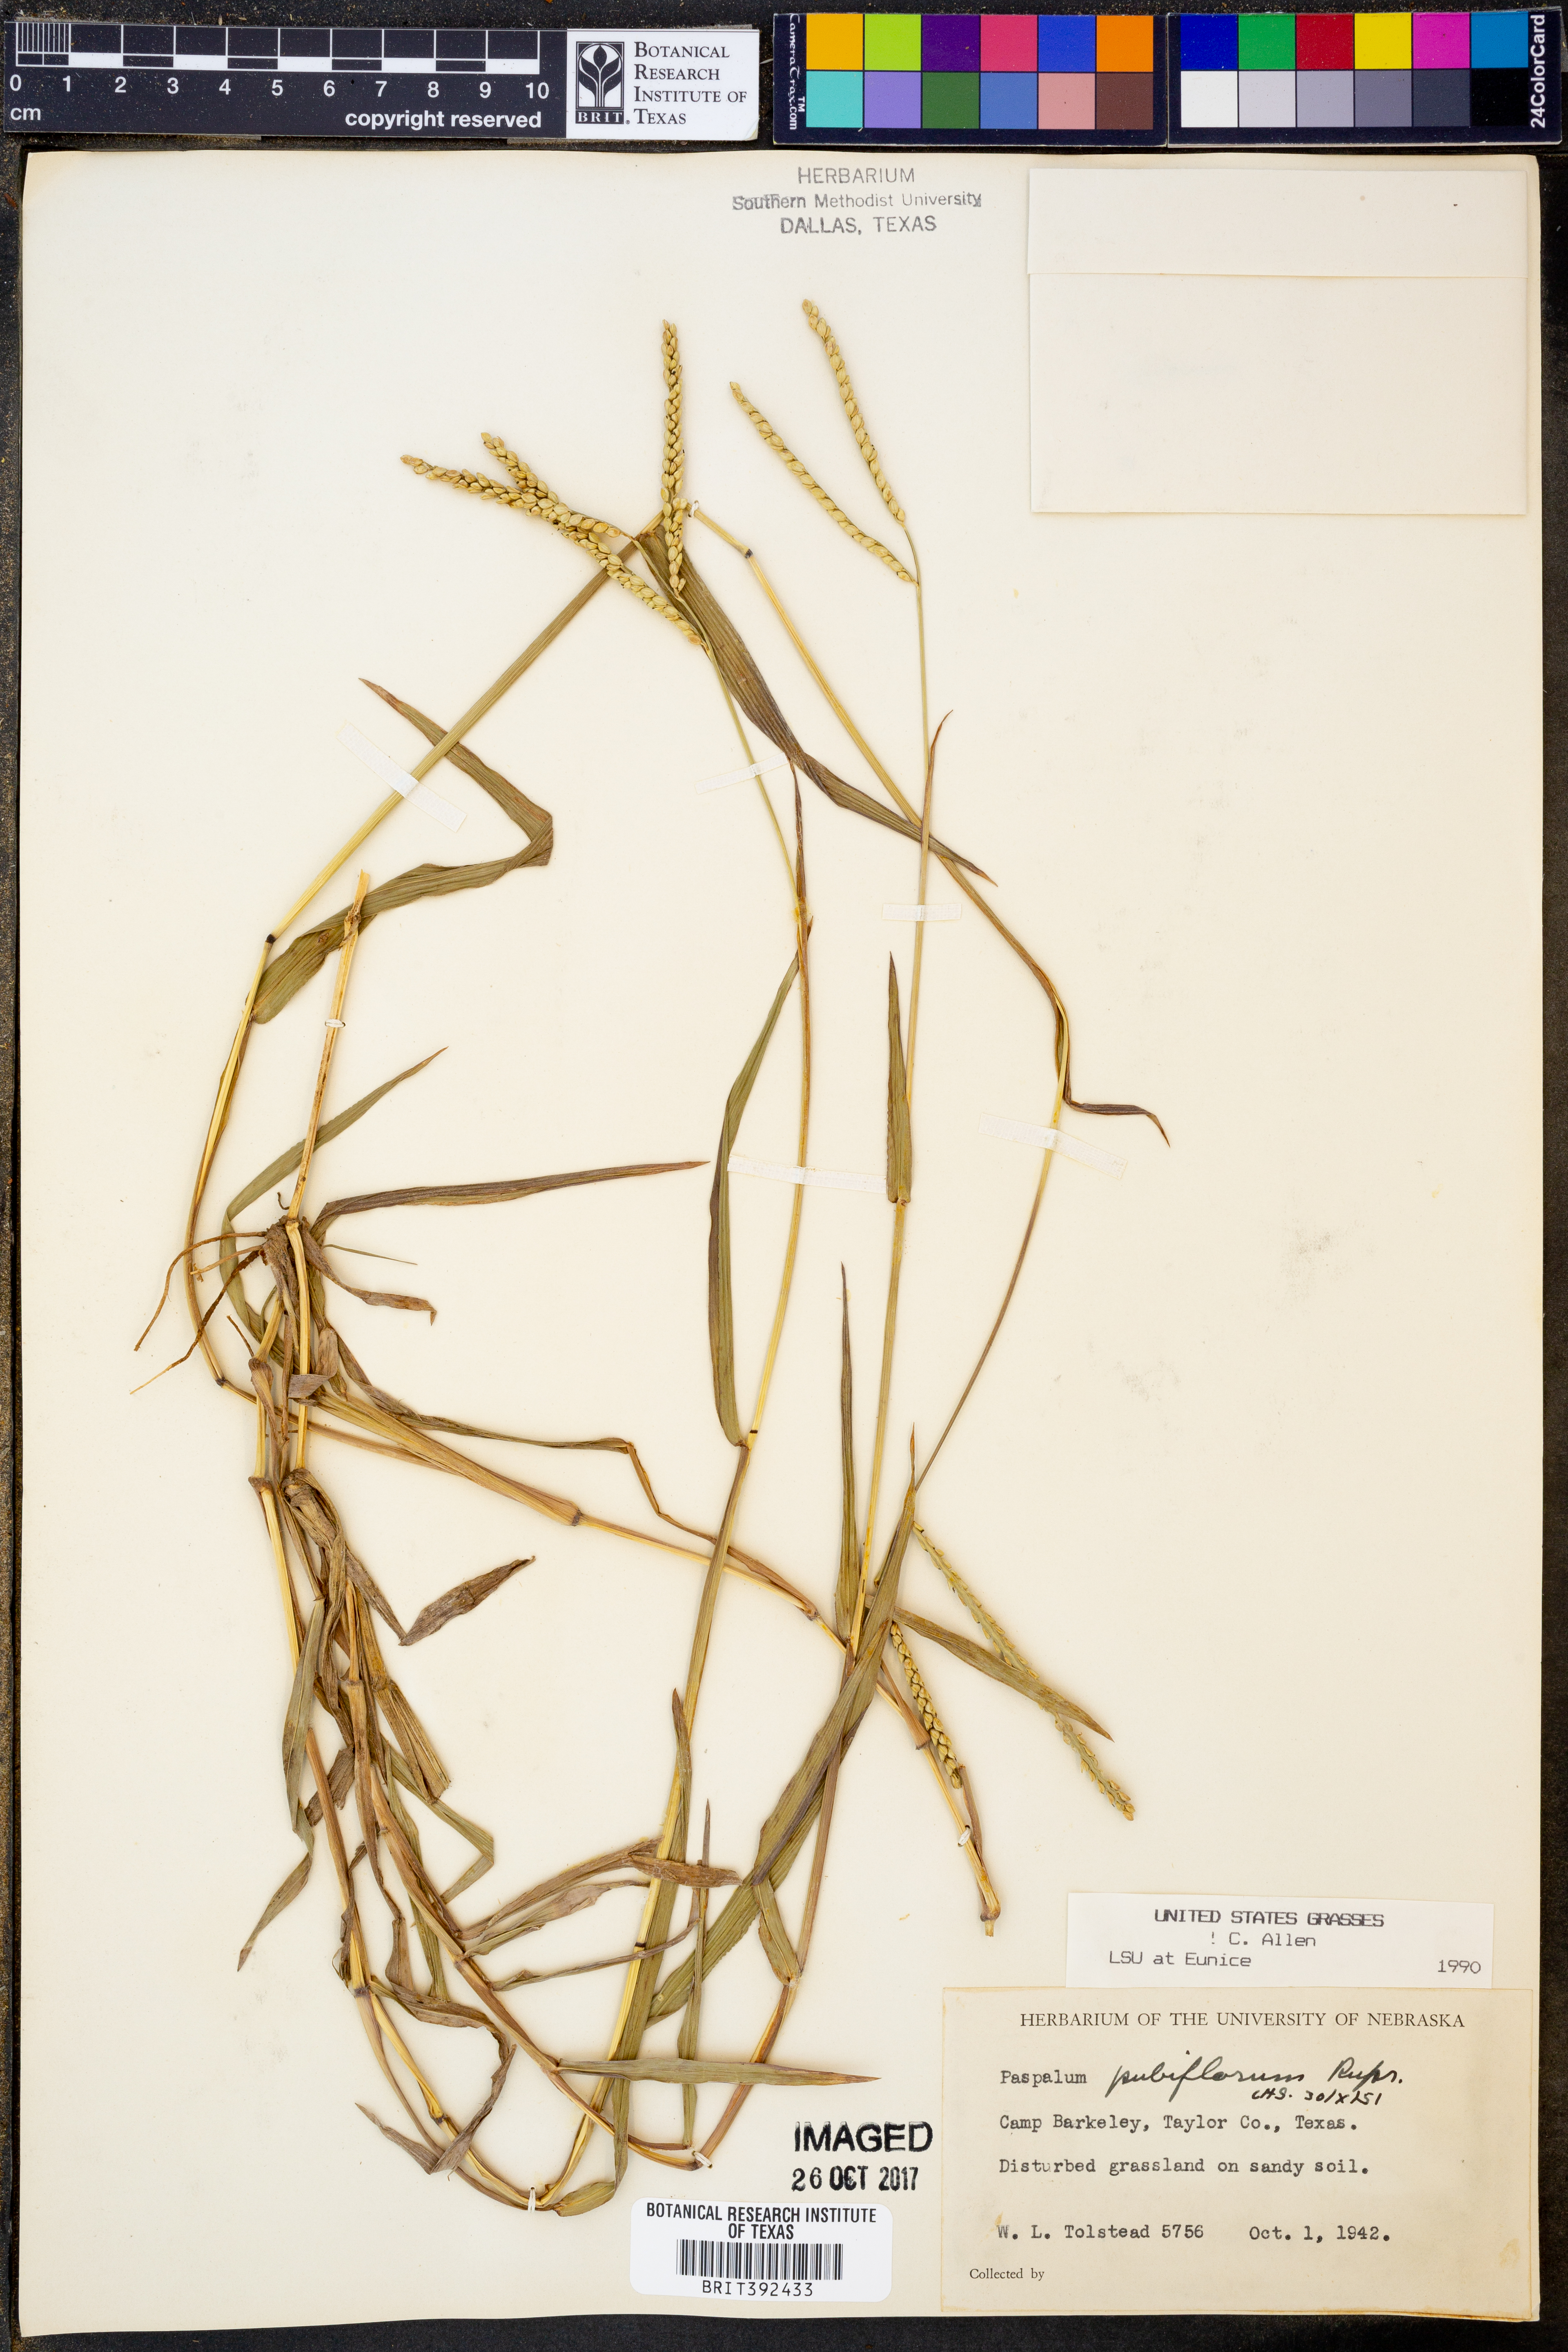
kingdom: Plantae
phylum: Tracheophyta
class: Liliopsida
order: Poales
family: Poaceae
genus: Paspalum
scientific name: Paspalum pubiflorum
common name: Hairy-seed paspalum
